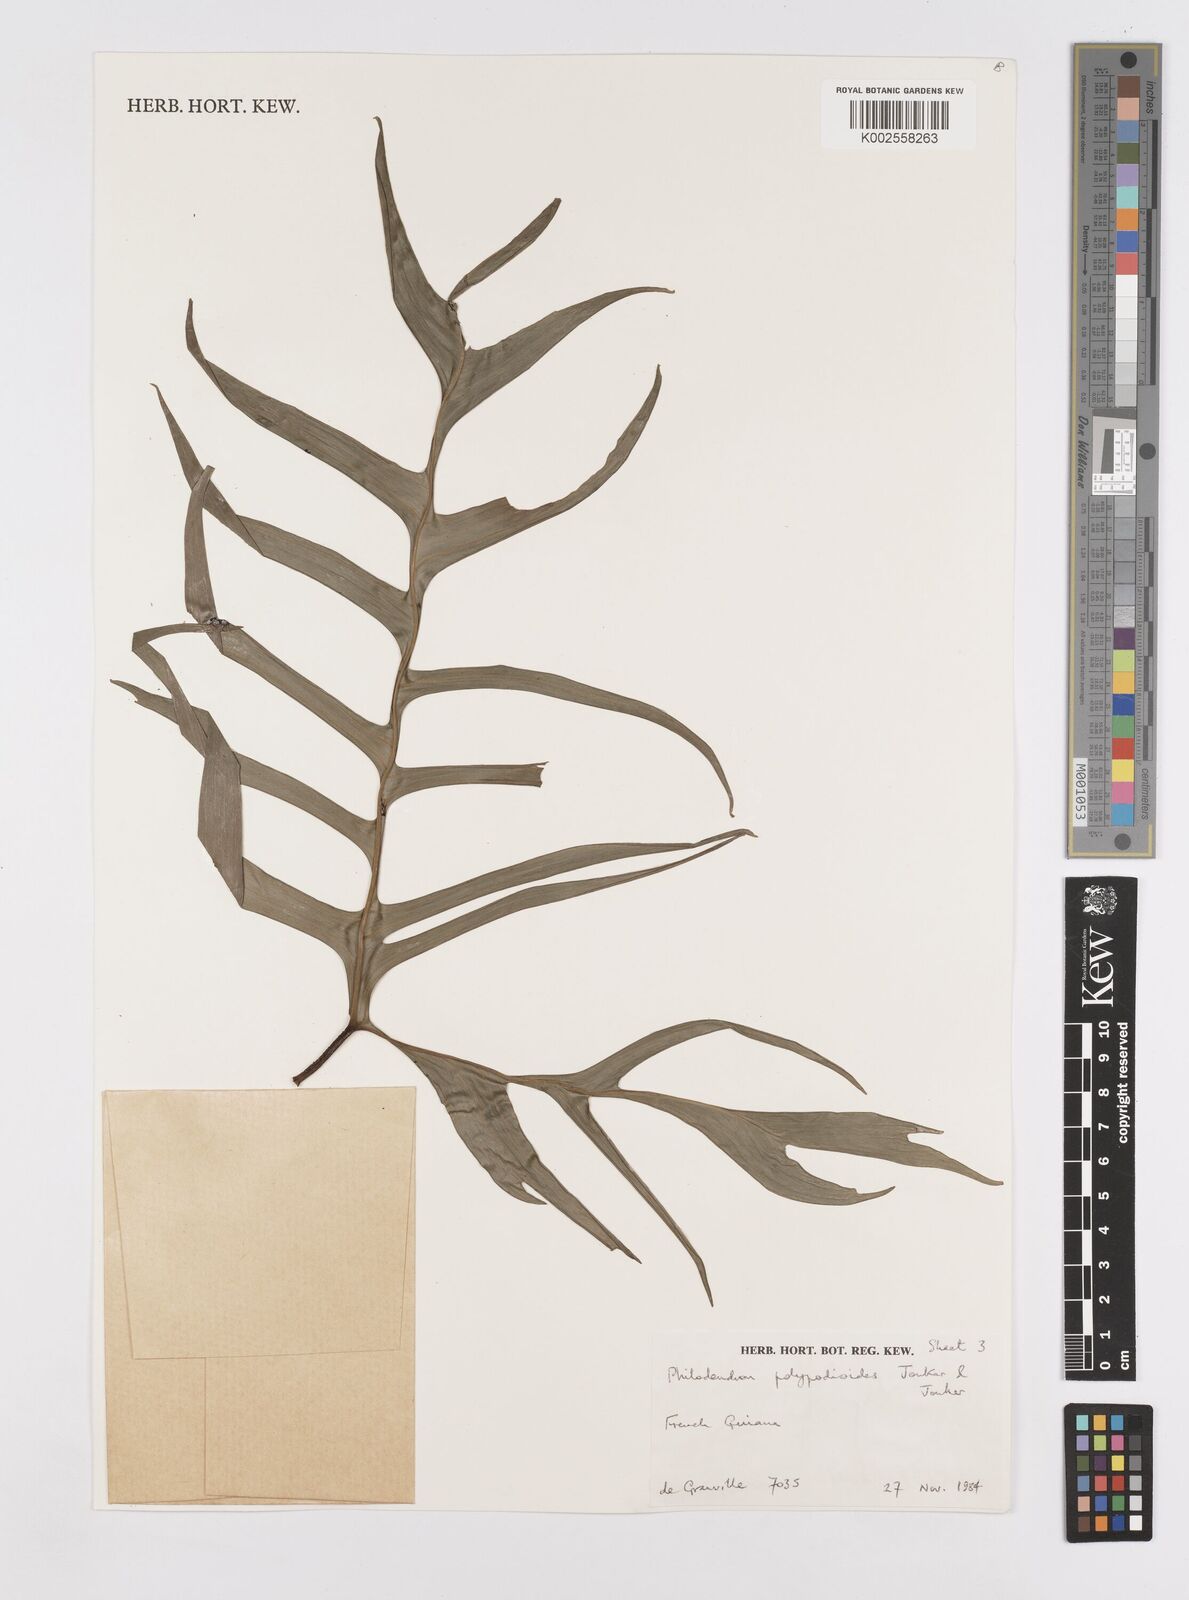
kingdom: Plantae
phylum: Tracheophyta
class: Liliopsida
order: Alismatales
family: Araceae
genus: Philodendron
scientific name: Philodendron pedatum
